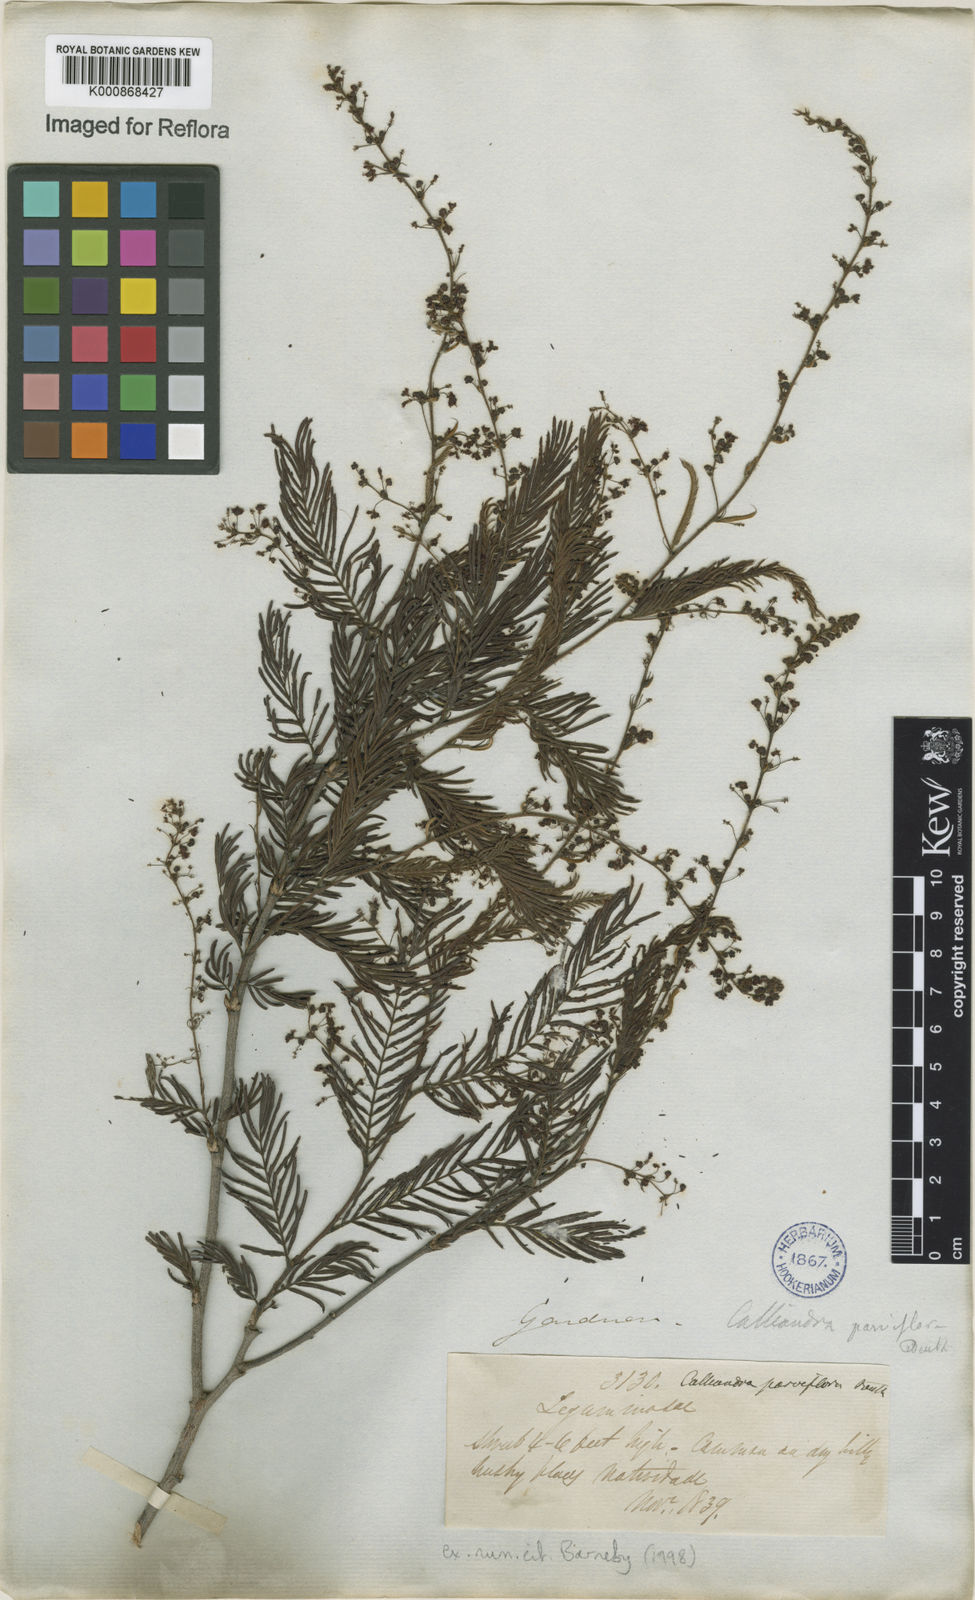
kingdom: Plantae
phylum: Tracheophyta
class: Magnoliopsida
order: Fabales
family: Fabaceae
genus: Calliandra
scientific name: Calliandra parviflora
